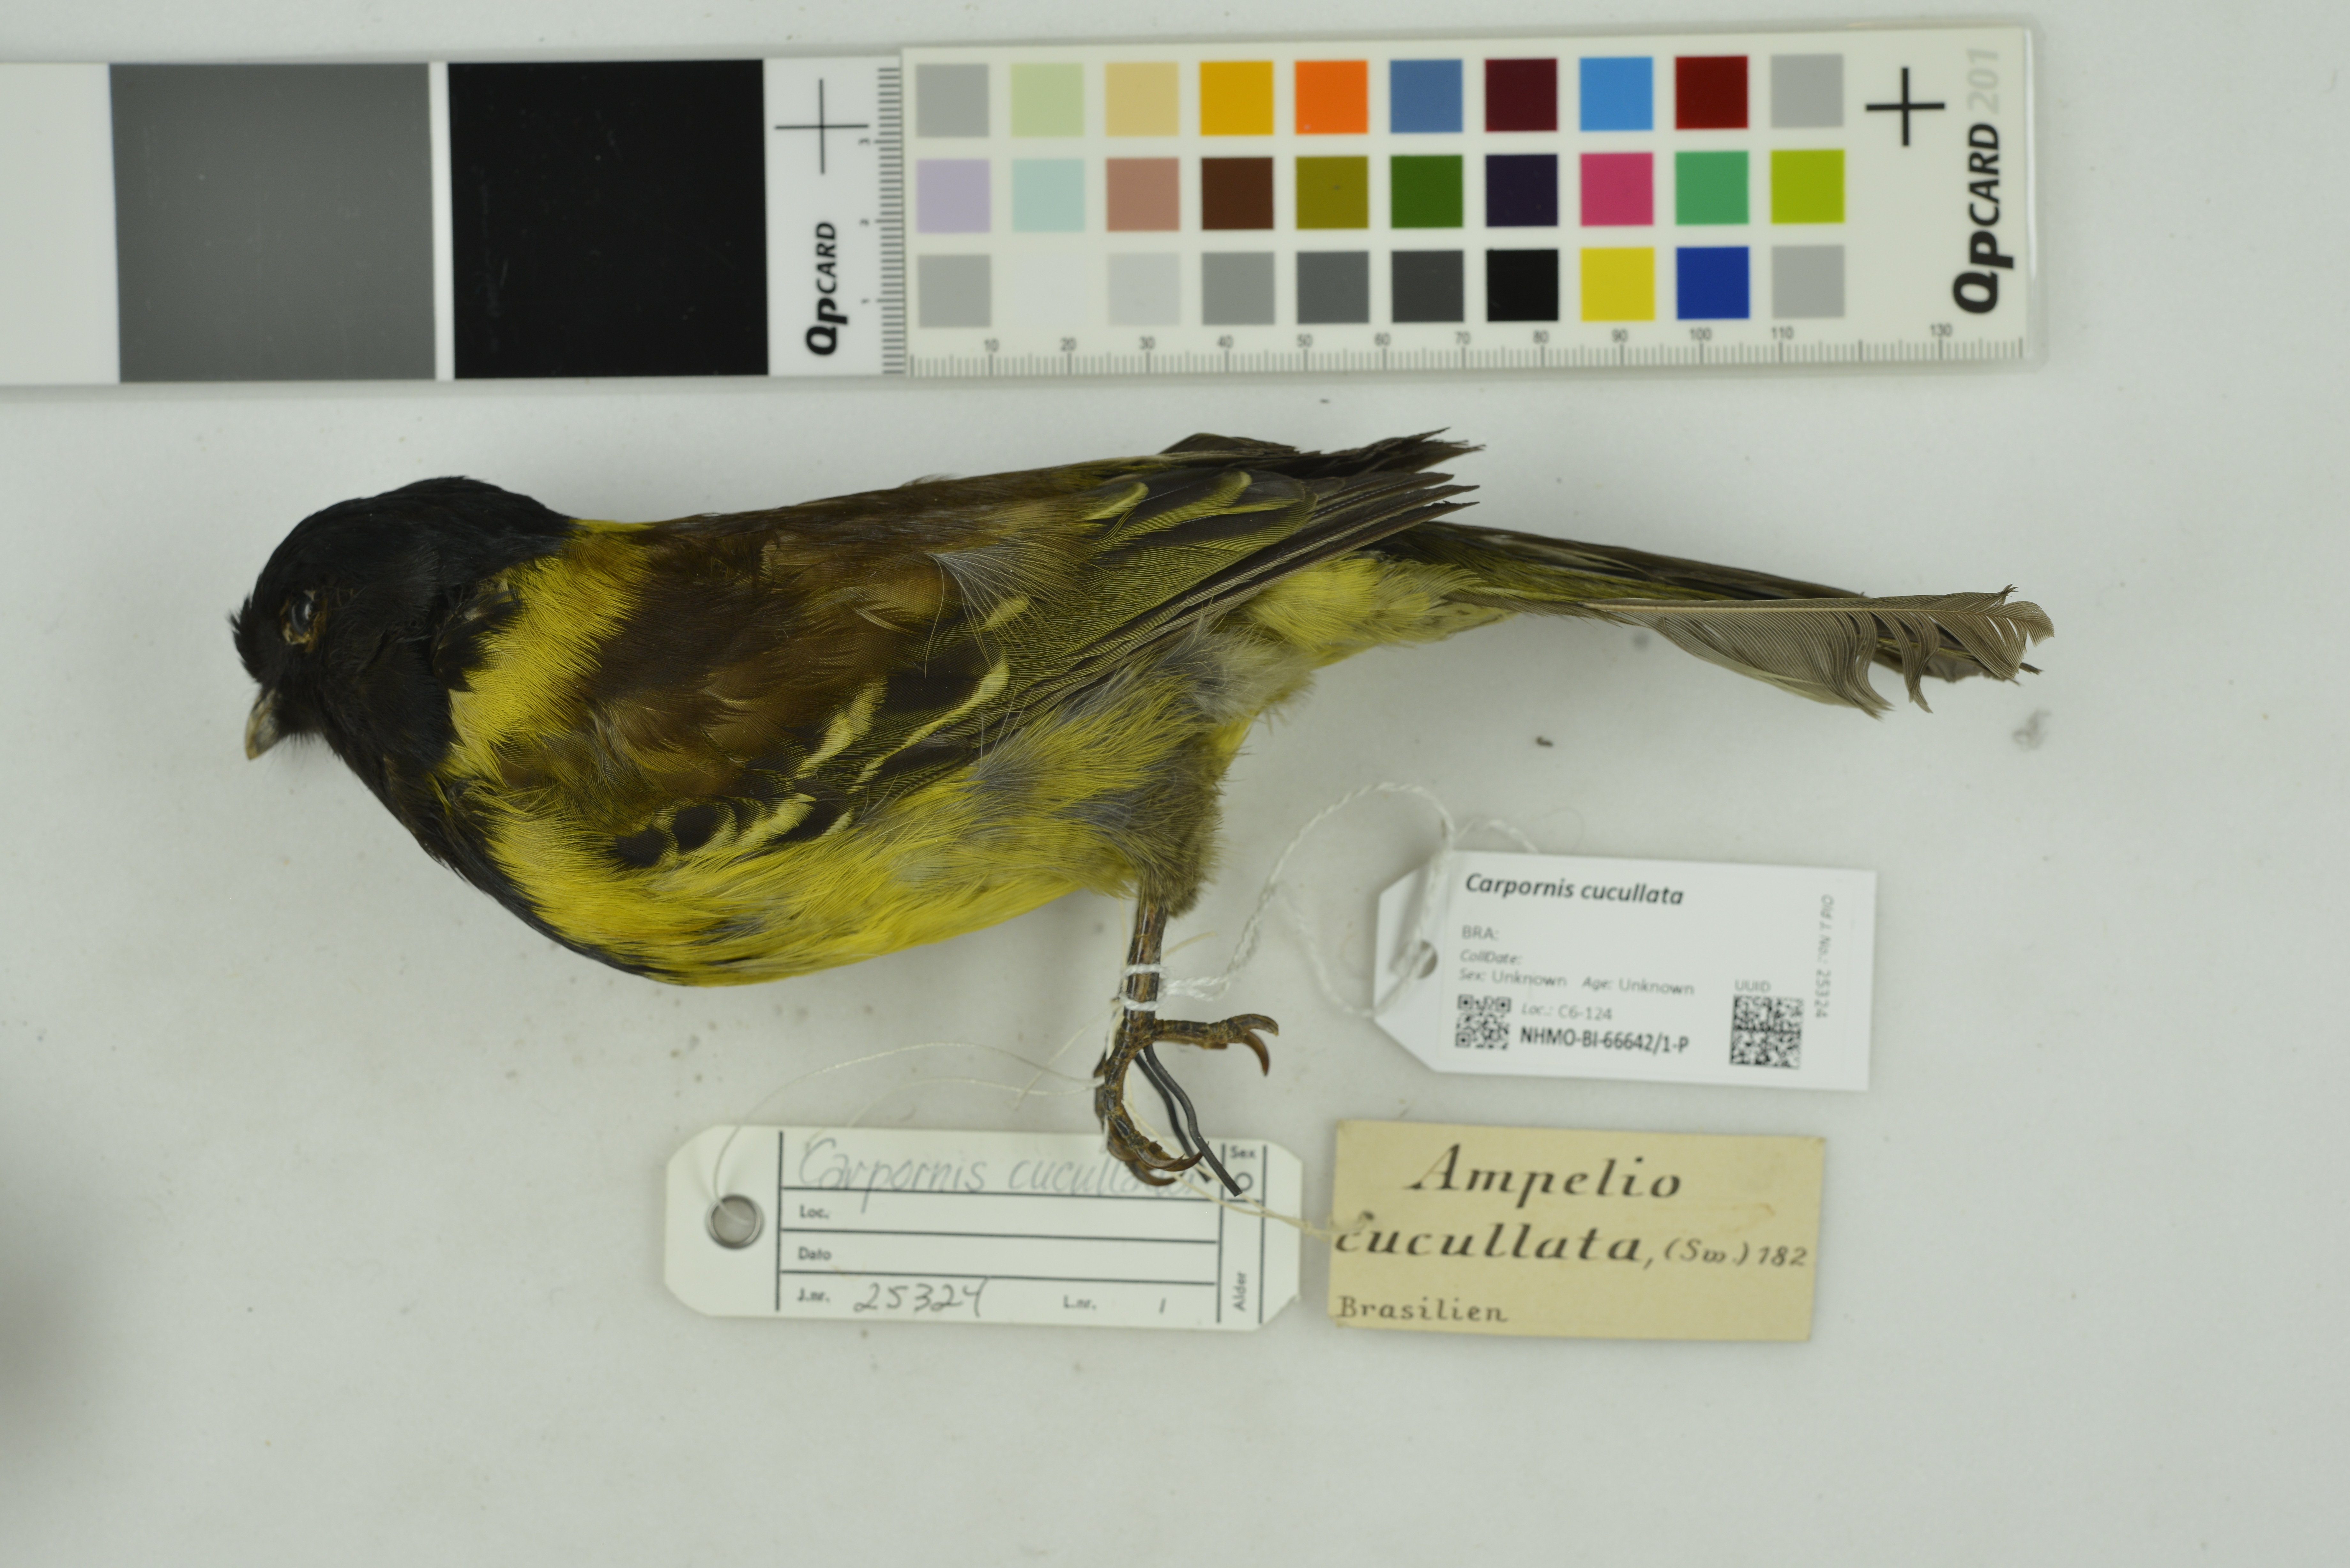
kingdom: Animalia
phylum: Chordata
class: Aves
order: Passeriformes
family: Cotingidae
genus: Carpornis
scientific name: Carpornis cucullata
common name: Hooded berryeater
